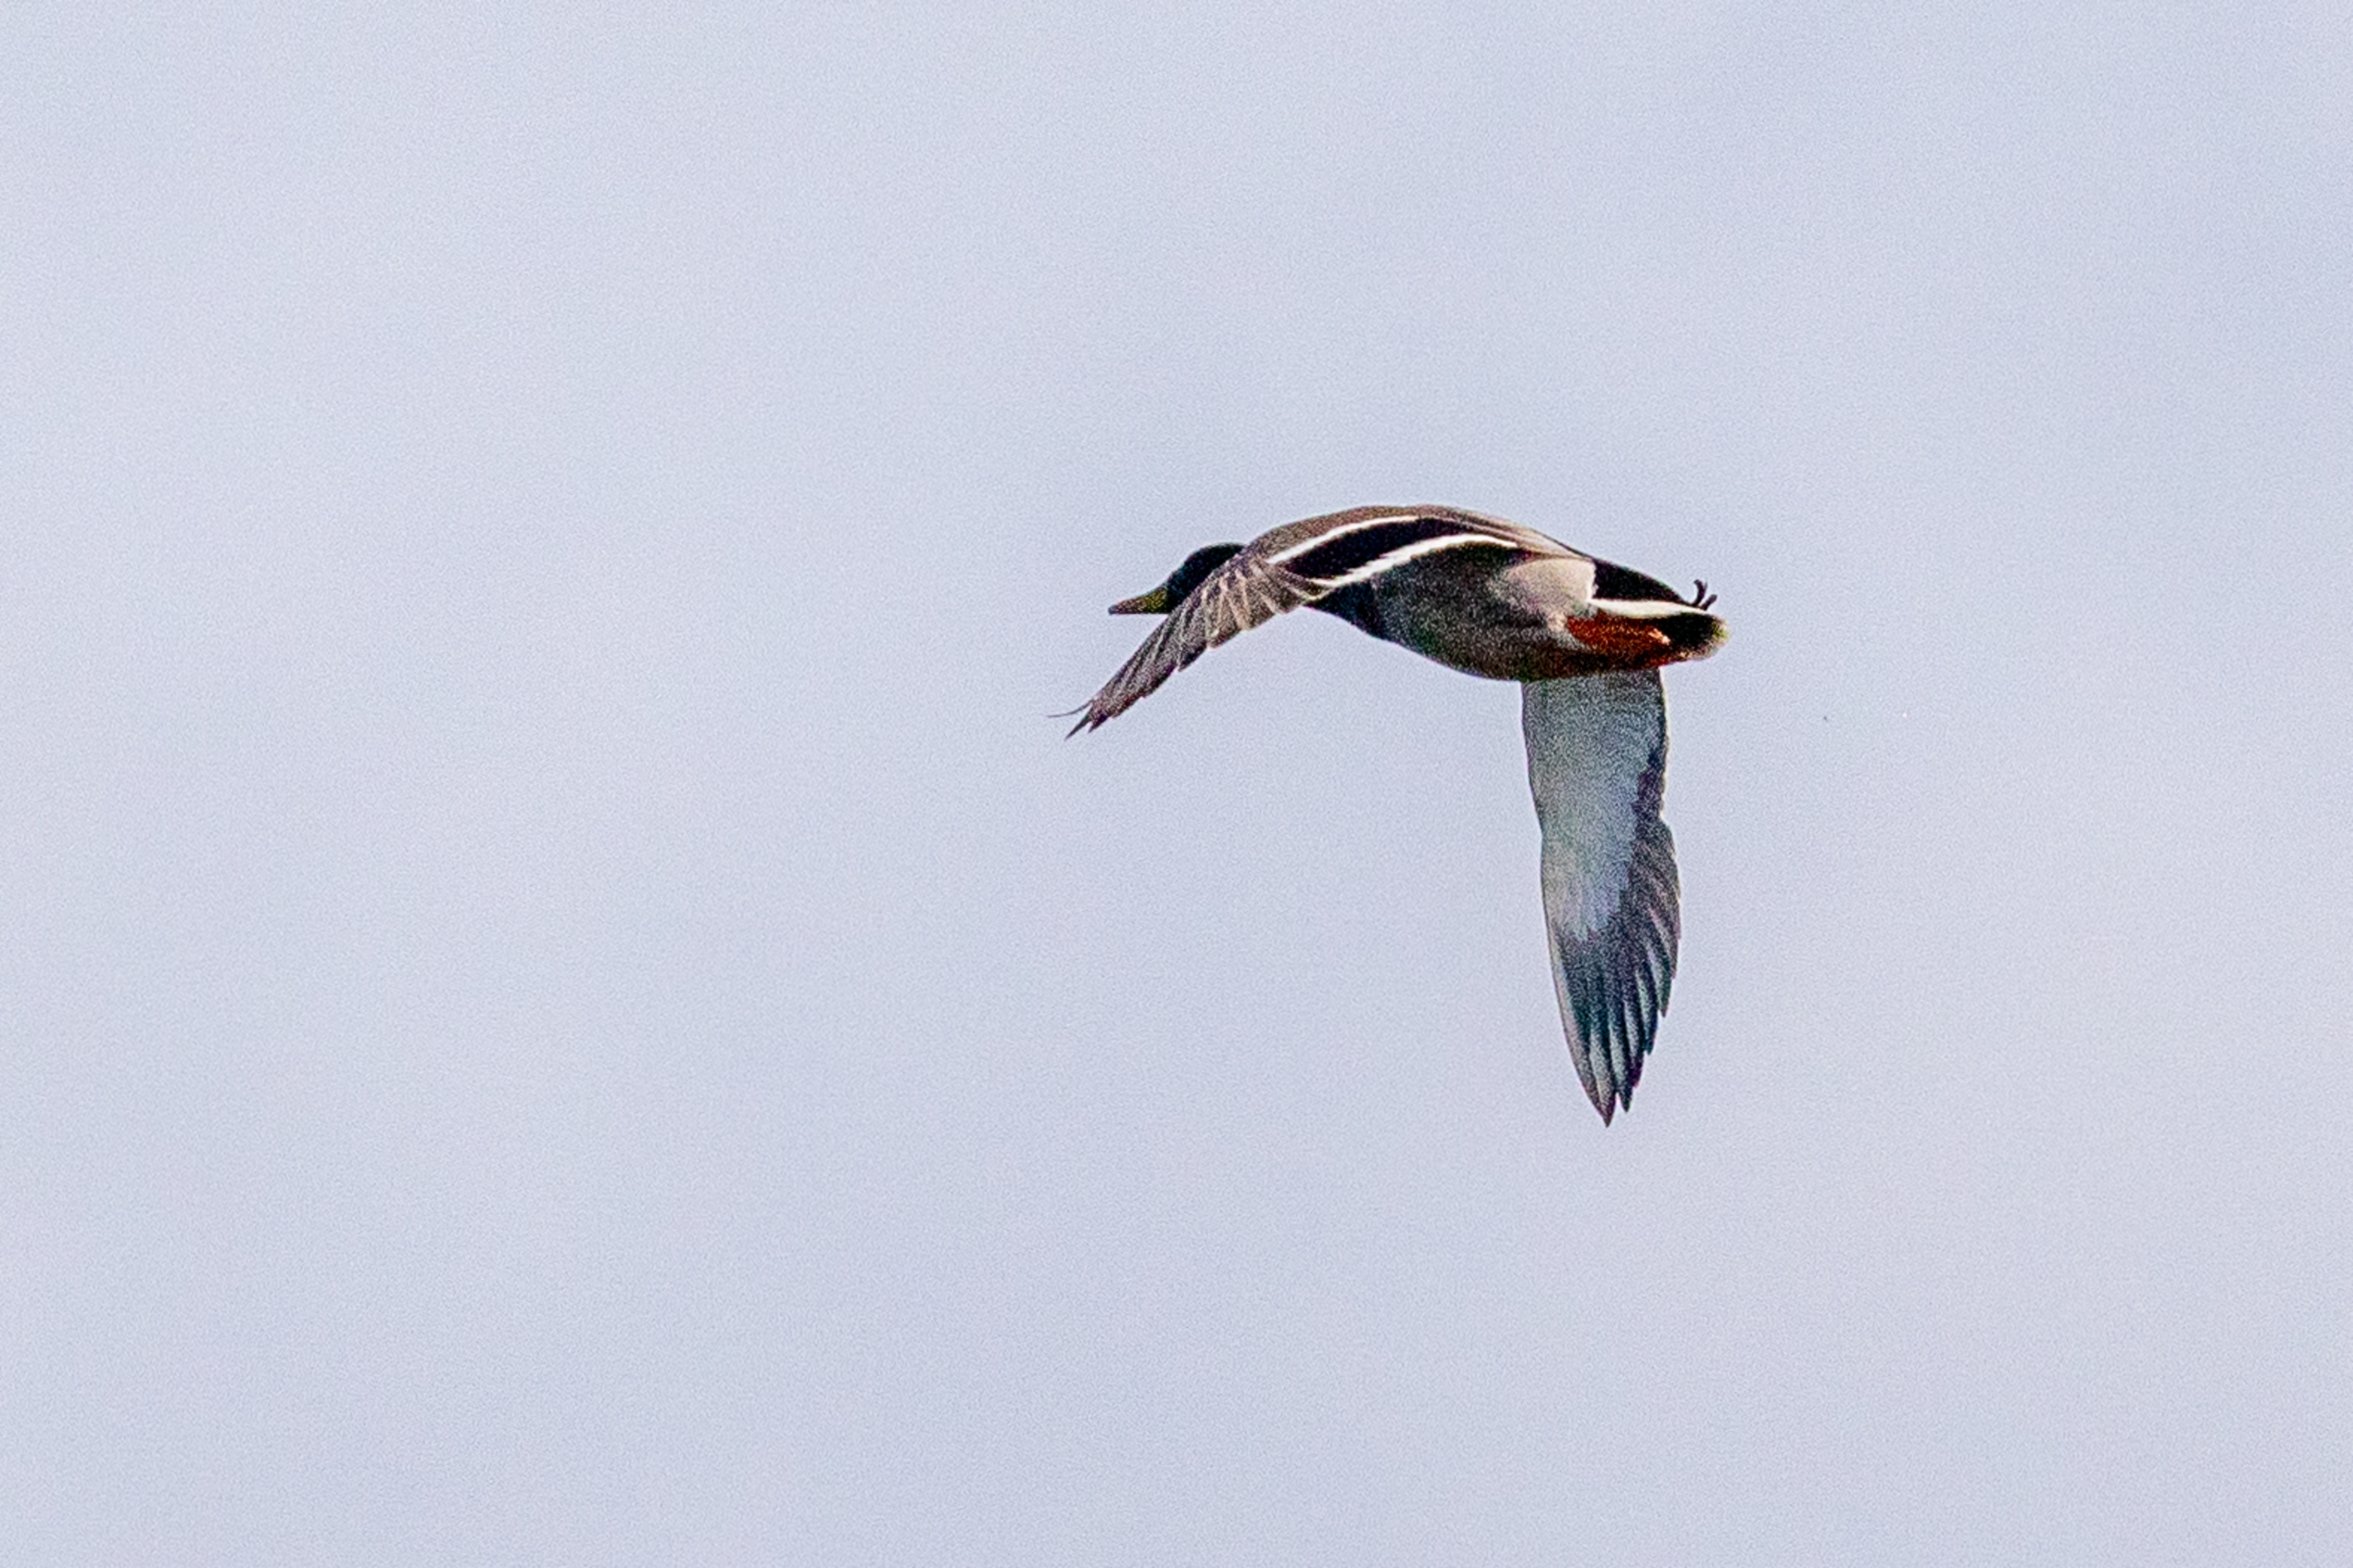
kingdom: Animalia
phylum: Chordata
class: Aves
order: Anseriformes
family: Anatidae
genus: Anas
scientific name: Anas platyrhynchos
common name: Gråand
